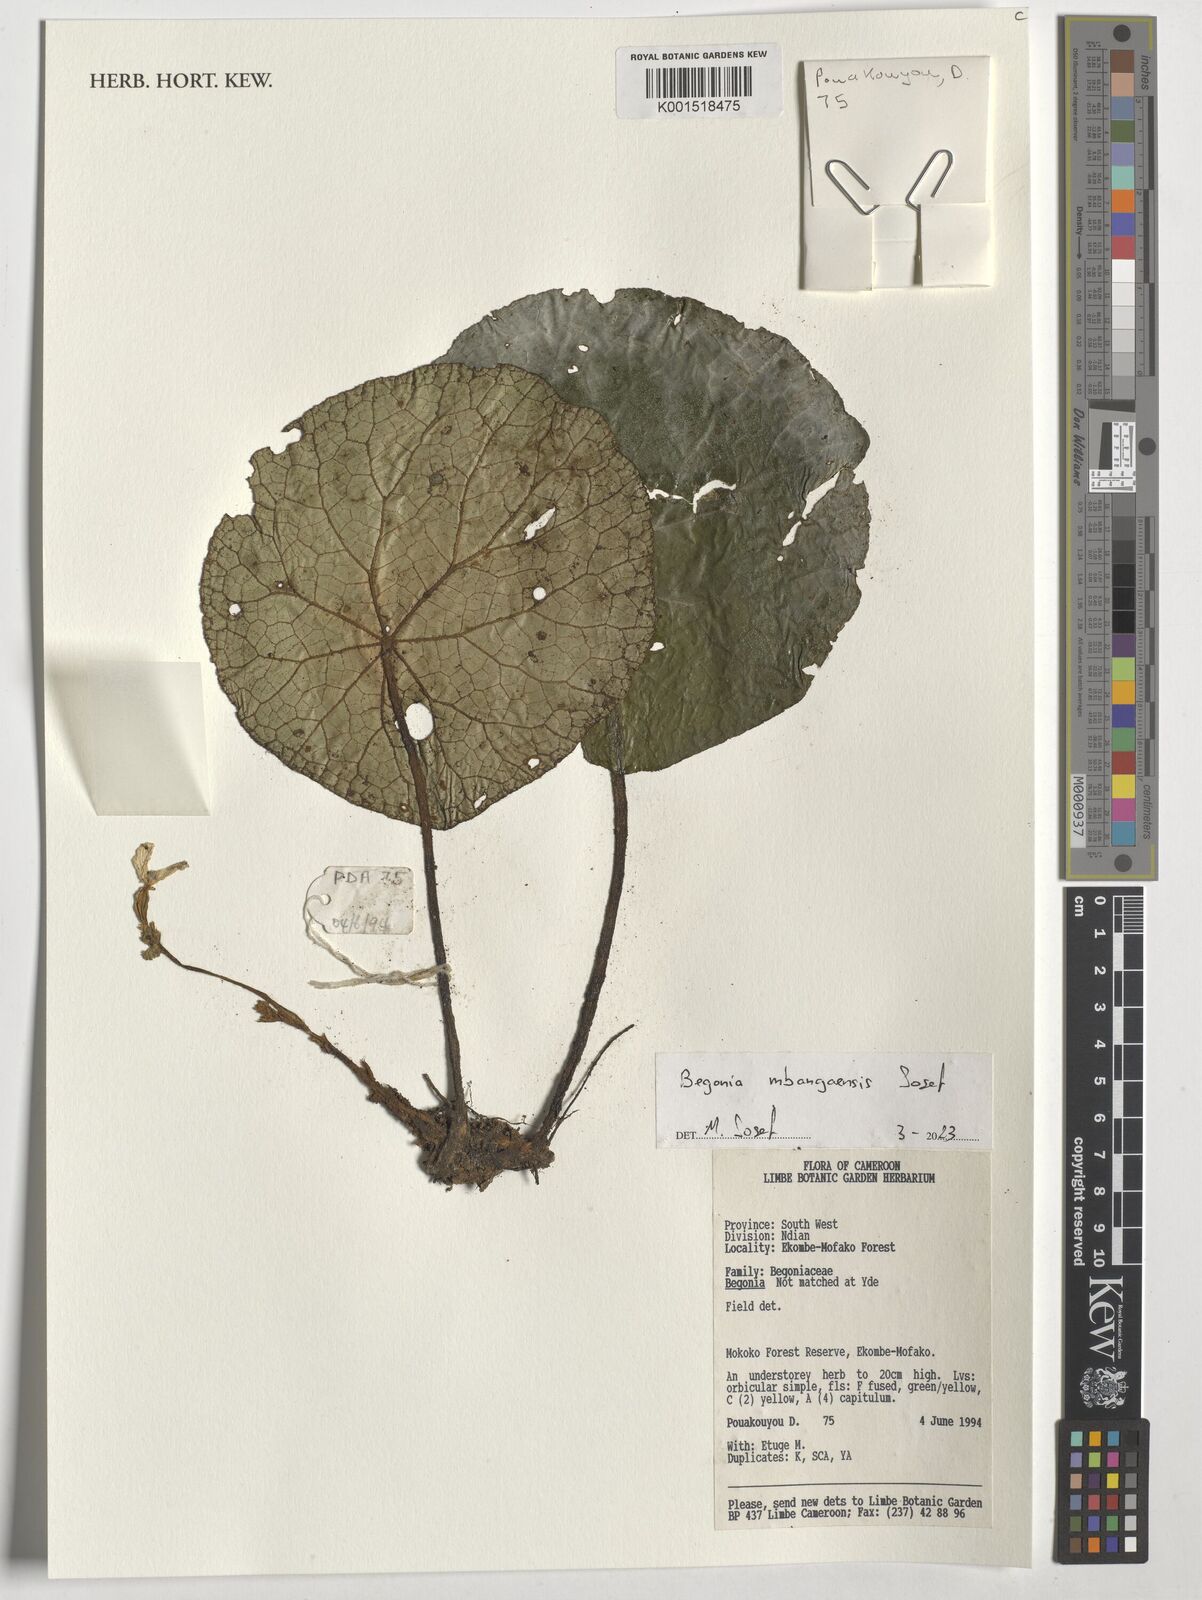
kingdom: Plantae
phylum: Tracheophyta
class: Magnoliopsida
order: Cucurbitales
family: Begoniaceae
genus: Begonia
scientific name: Begonia mbangaensis
